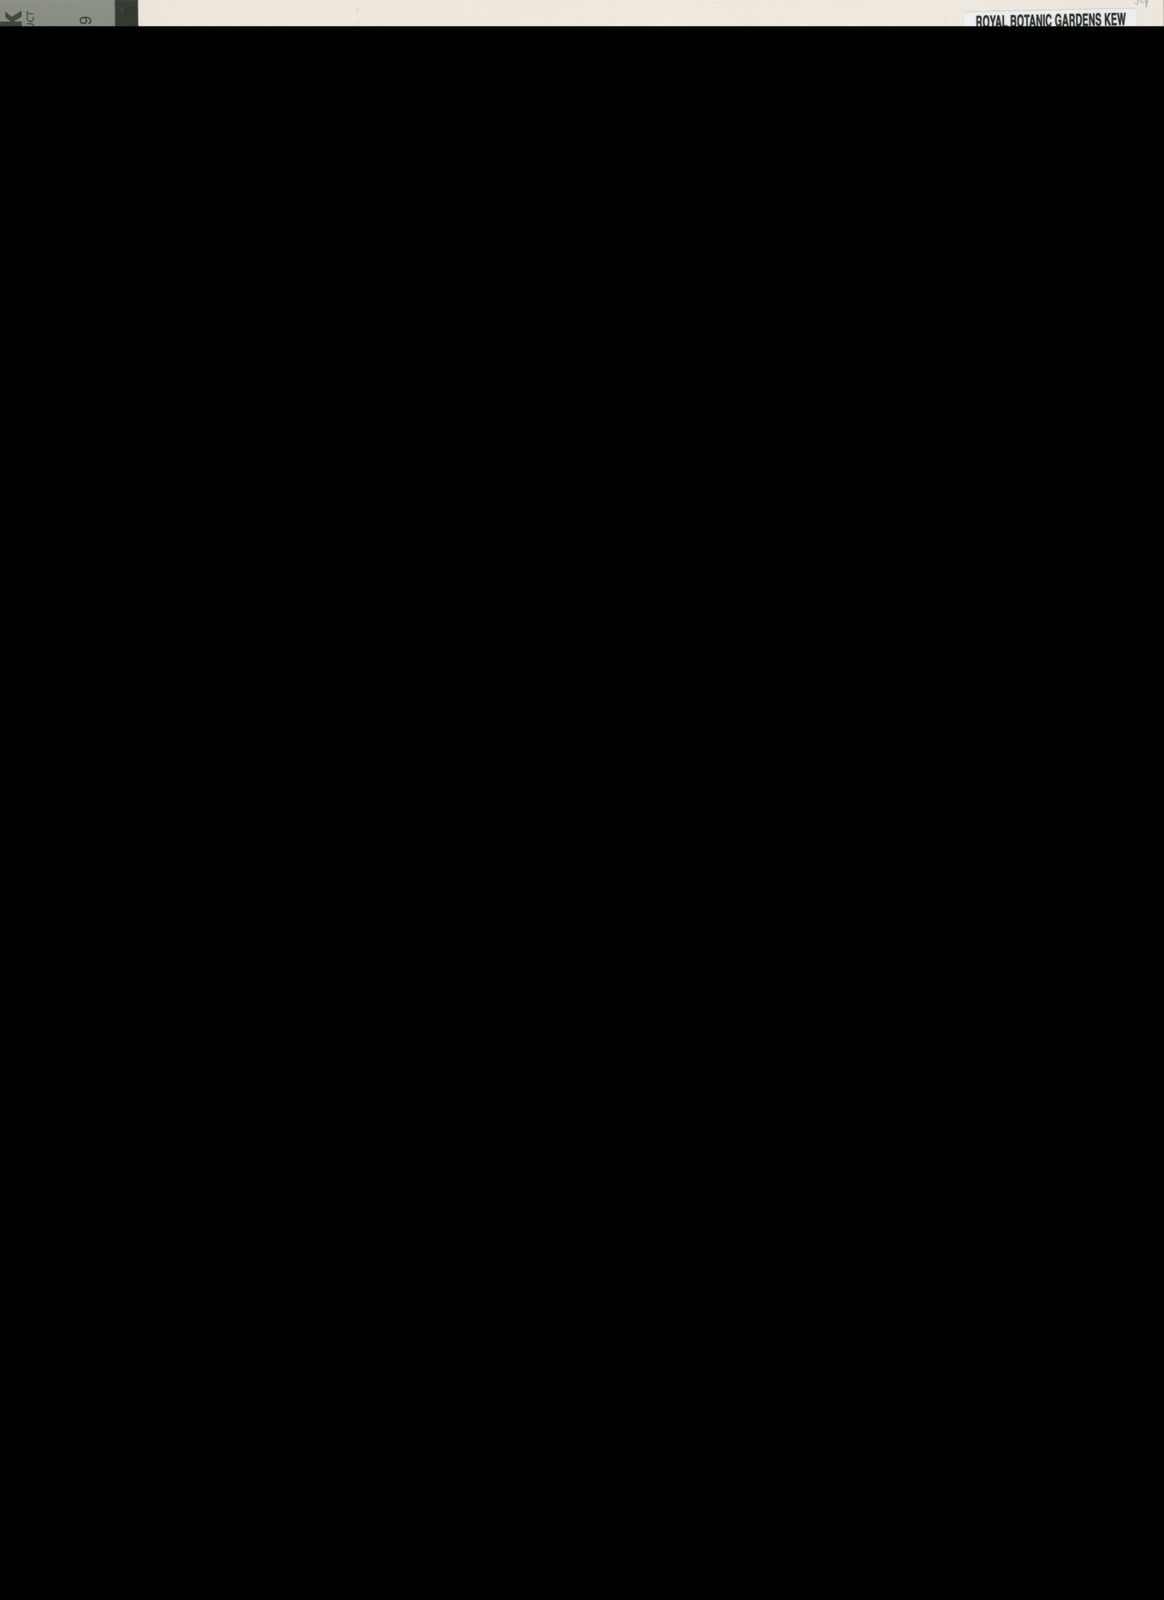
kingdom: Plantae
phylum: Tracheophyta
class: Magnoliopsida
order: Malpighiales
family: Euphorbiaceae
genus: Euphorbia
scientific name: Euphorbia gladiata
